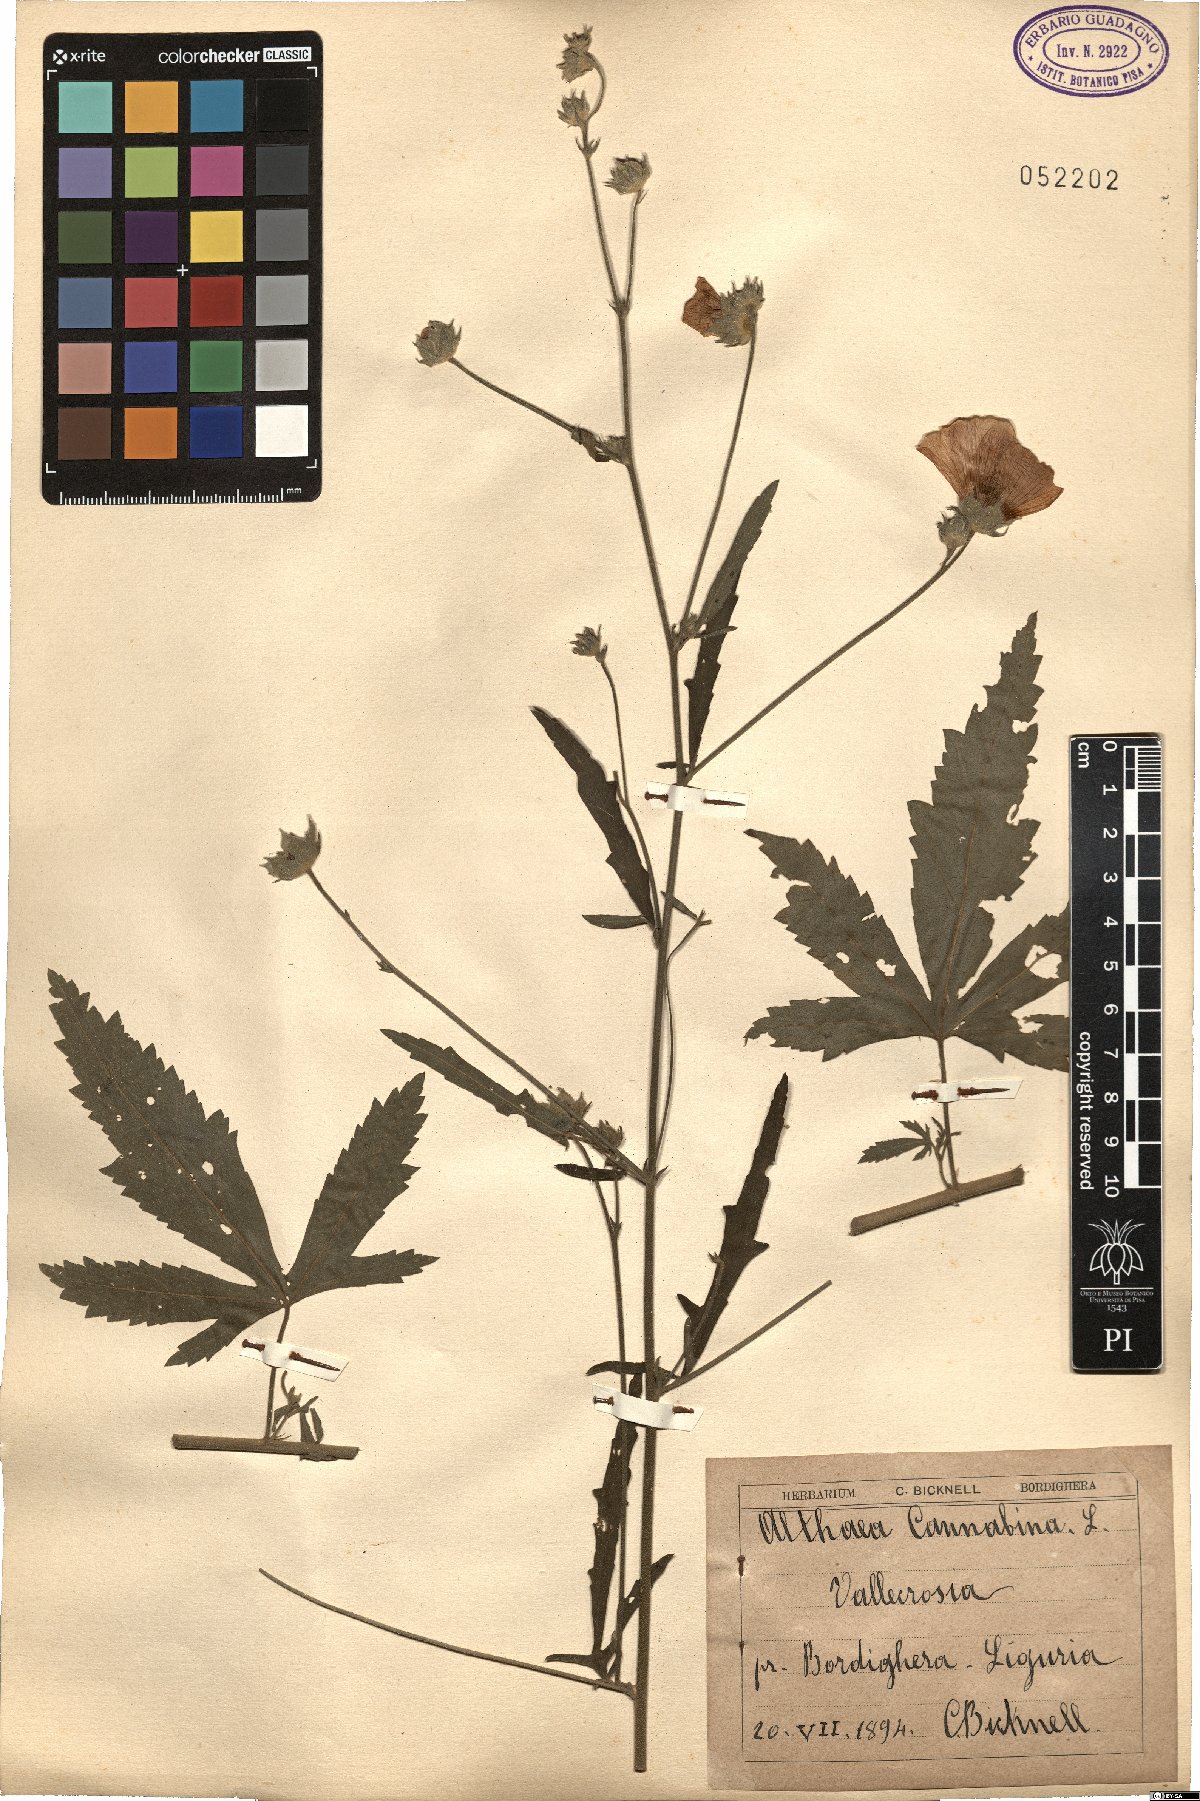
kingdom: Plantae
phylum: Tracheophyta
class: Magnoliopsida
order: Malvales
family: Malvaceae
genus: Althaea
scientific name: Althaea cannabina
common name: Palm-leaf marshmallow
